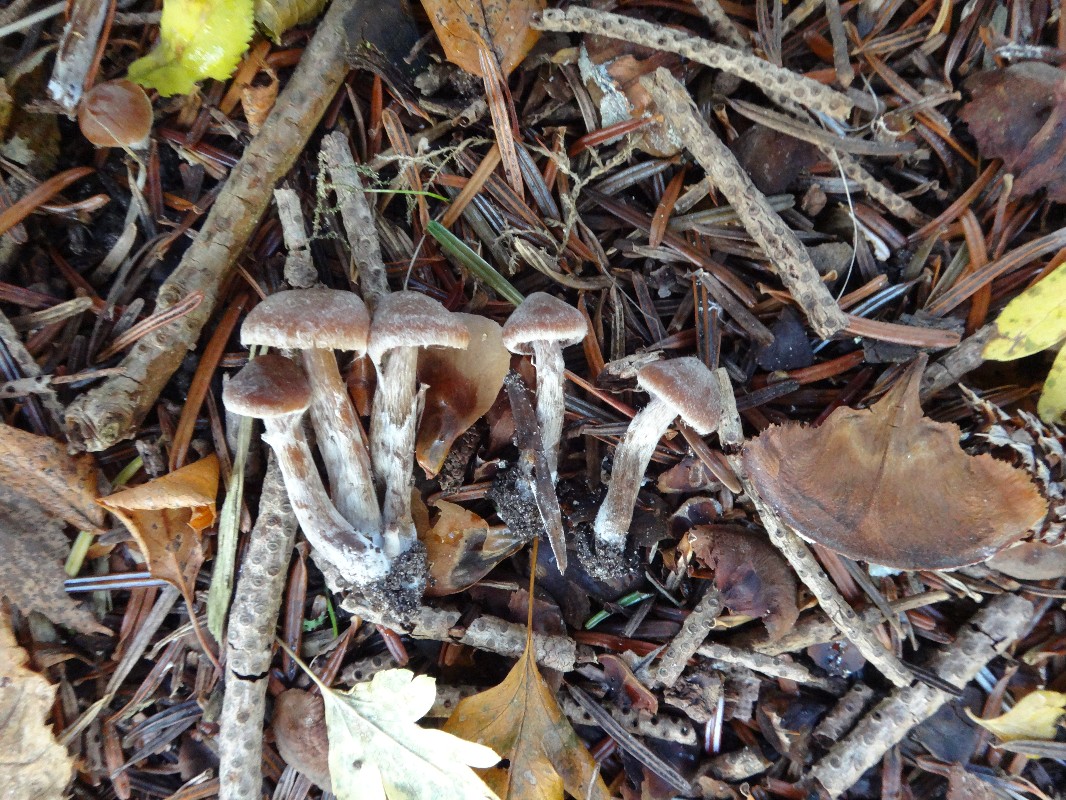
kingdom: Fungi
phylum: Basidiomycota
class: Agaricomycetes
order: Agaricales
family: Cortinariaceae
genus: Cortinarius
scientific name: Cortinarius
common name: pelargonie-slørhat
